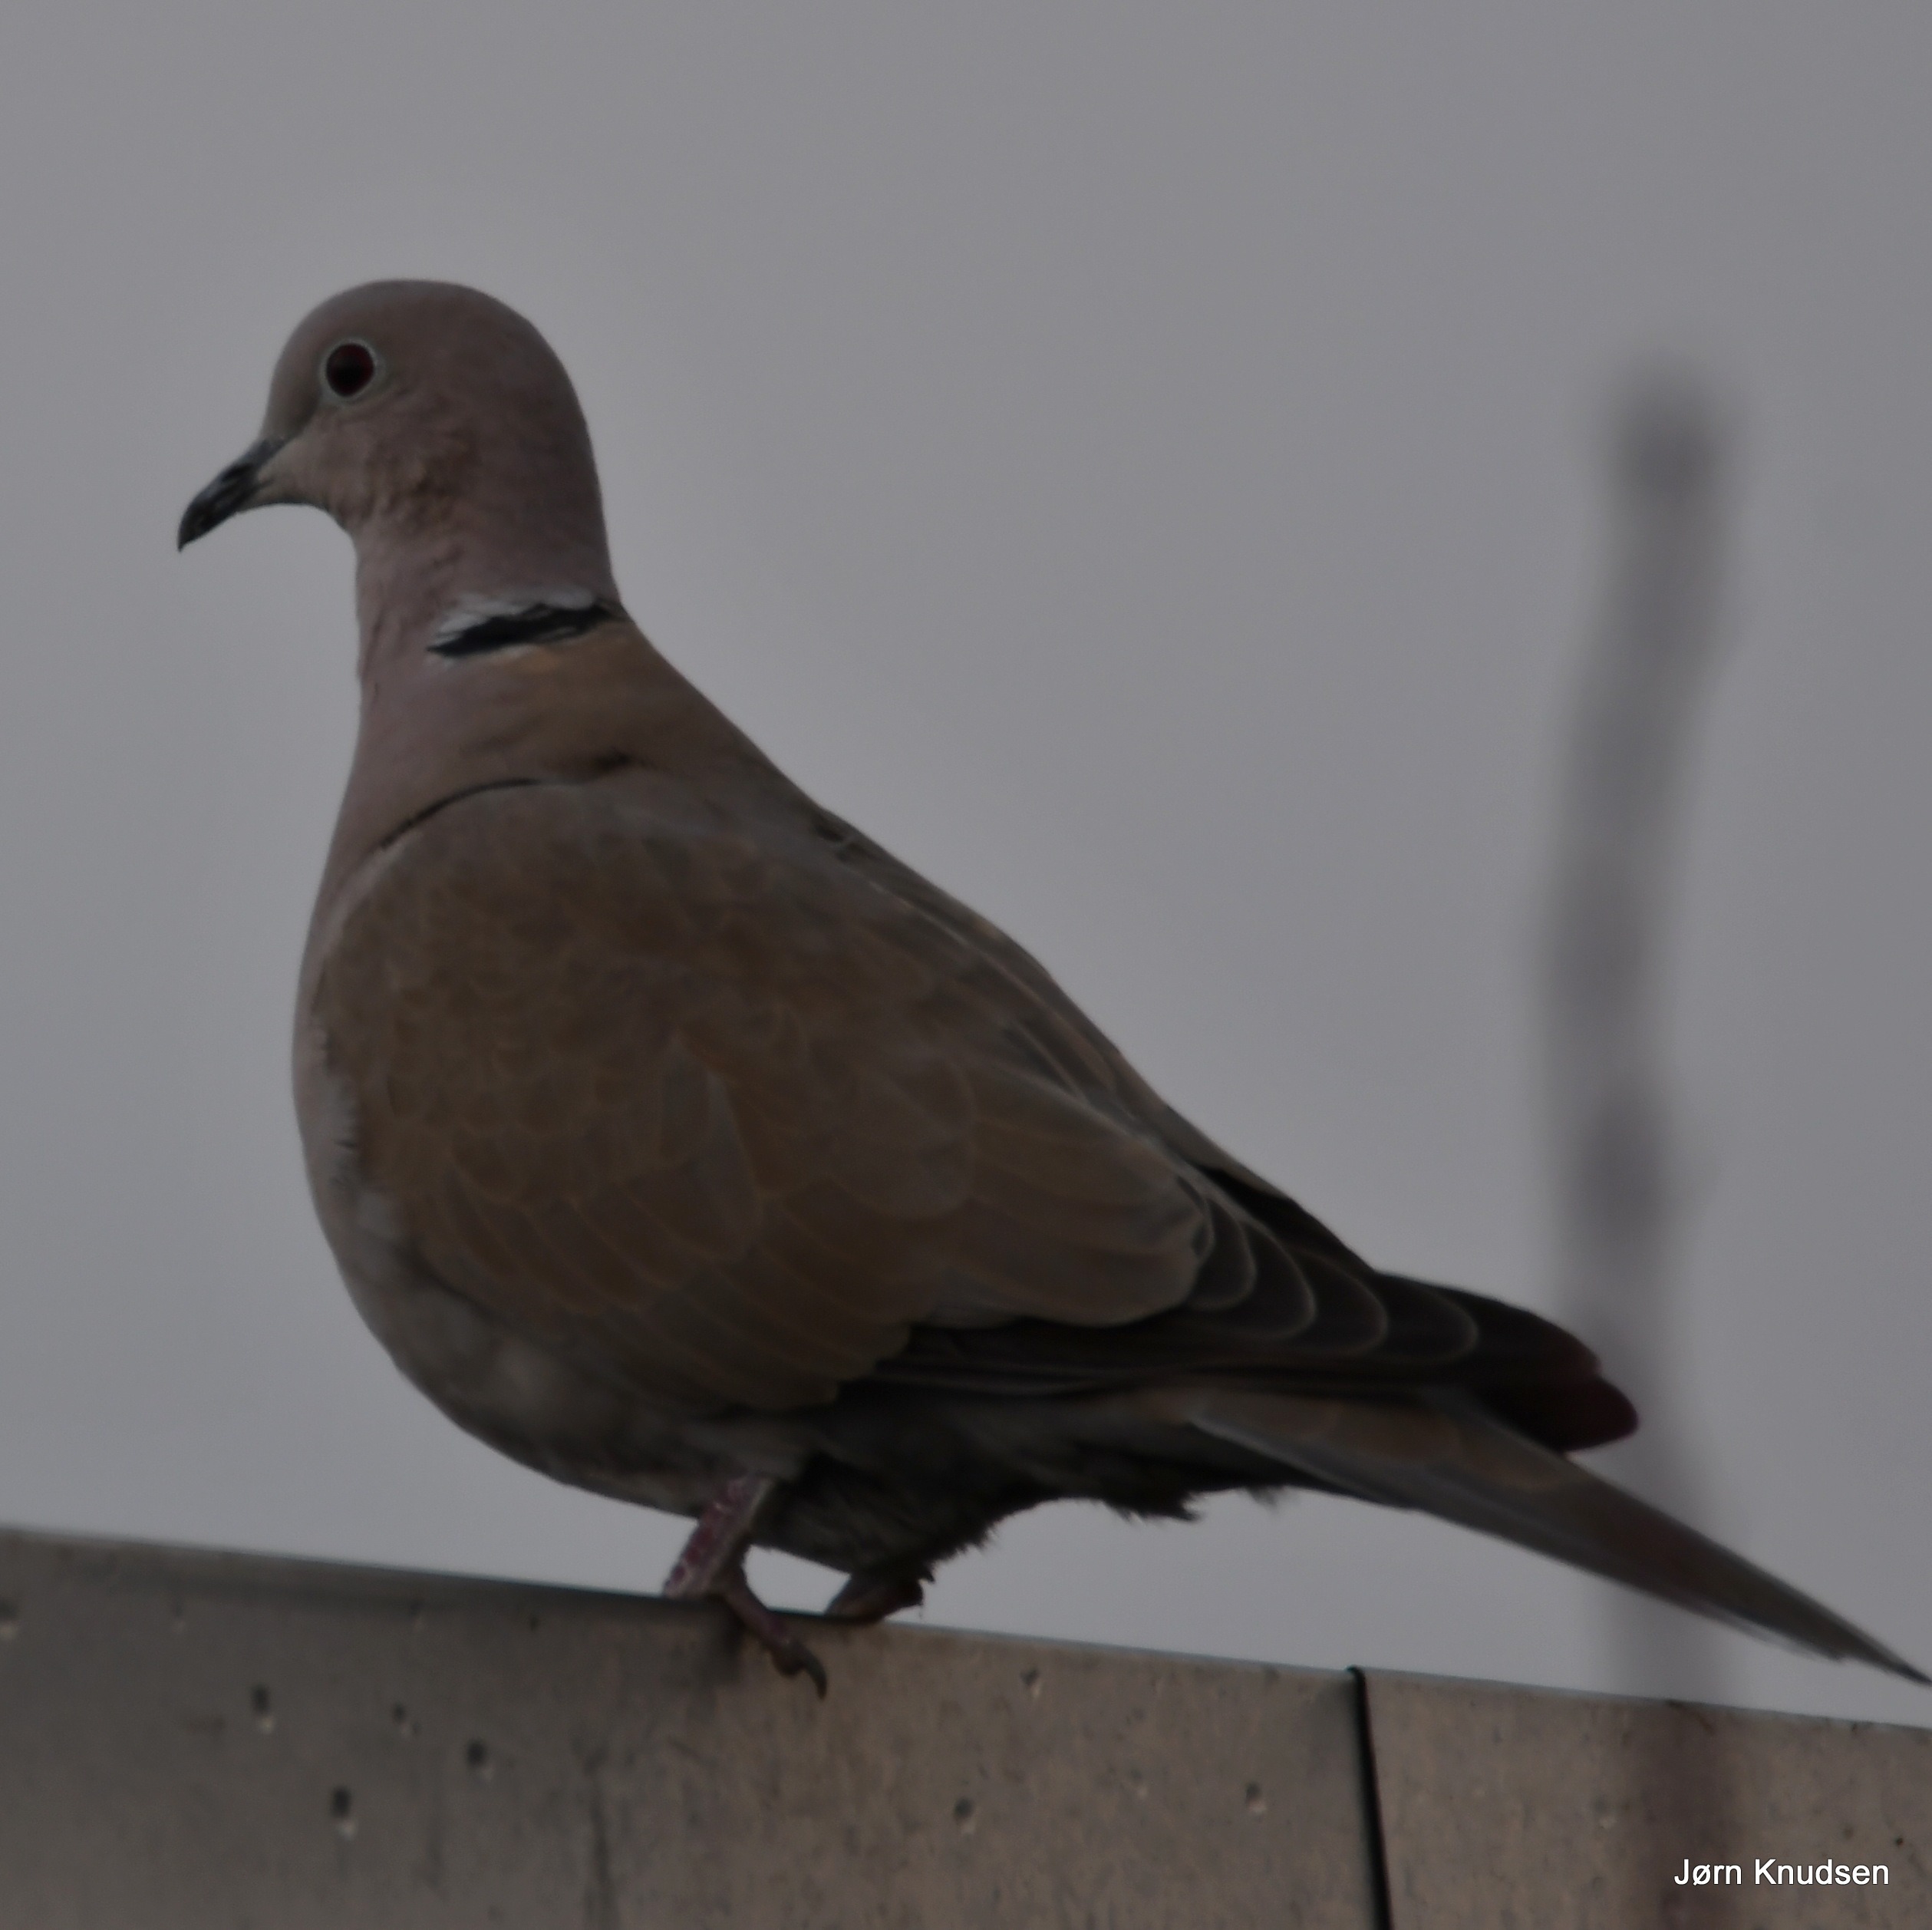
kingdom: Animalia
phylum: Chordata
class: Aves
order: Columbiformes
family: Columbidae
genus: Streptopelia
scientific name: Streptopelia decaocto
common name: Tyrkerdue
